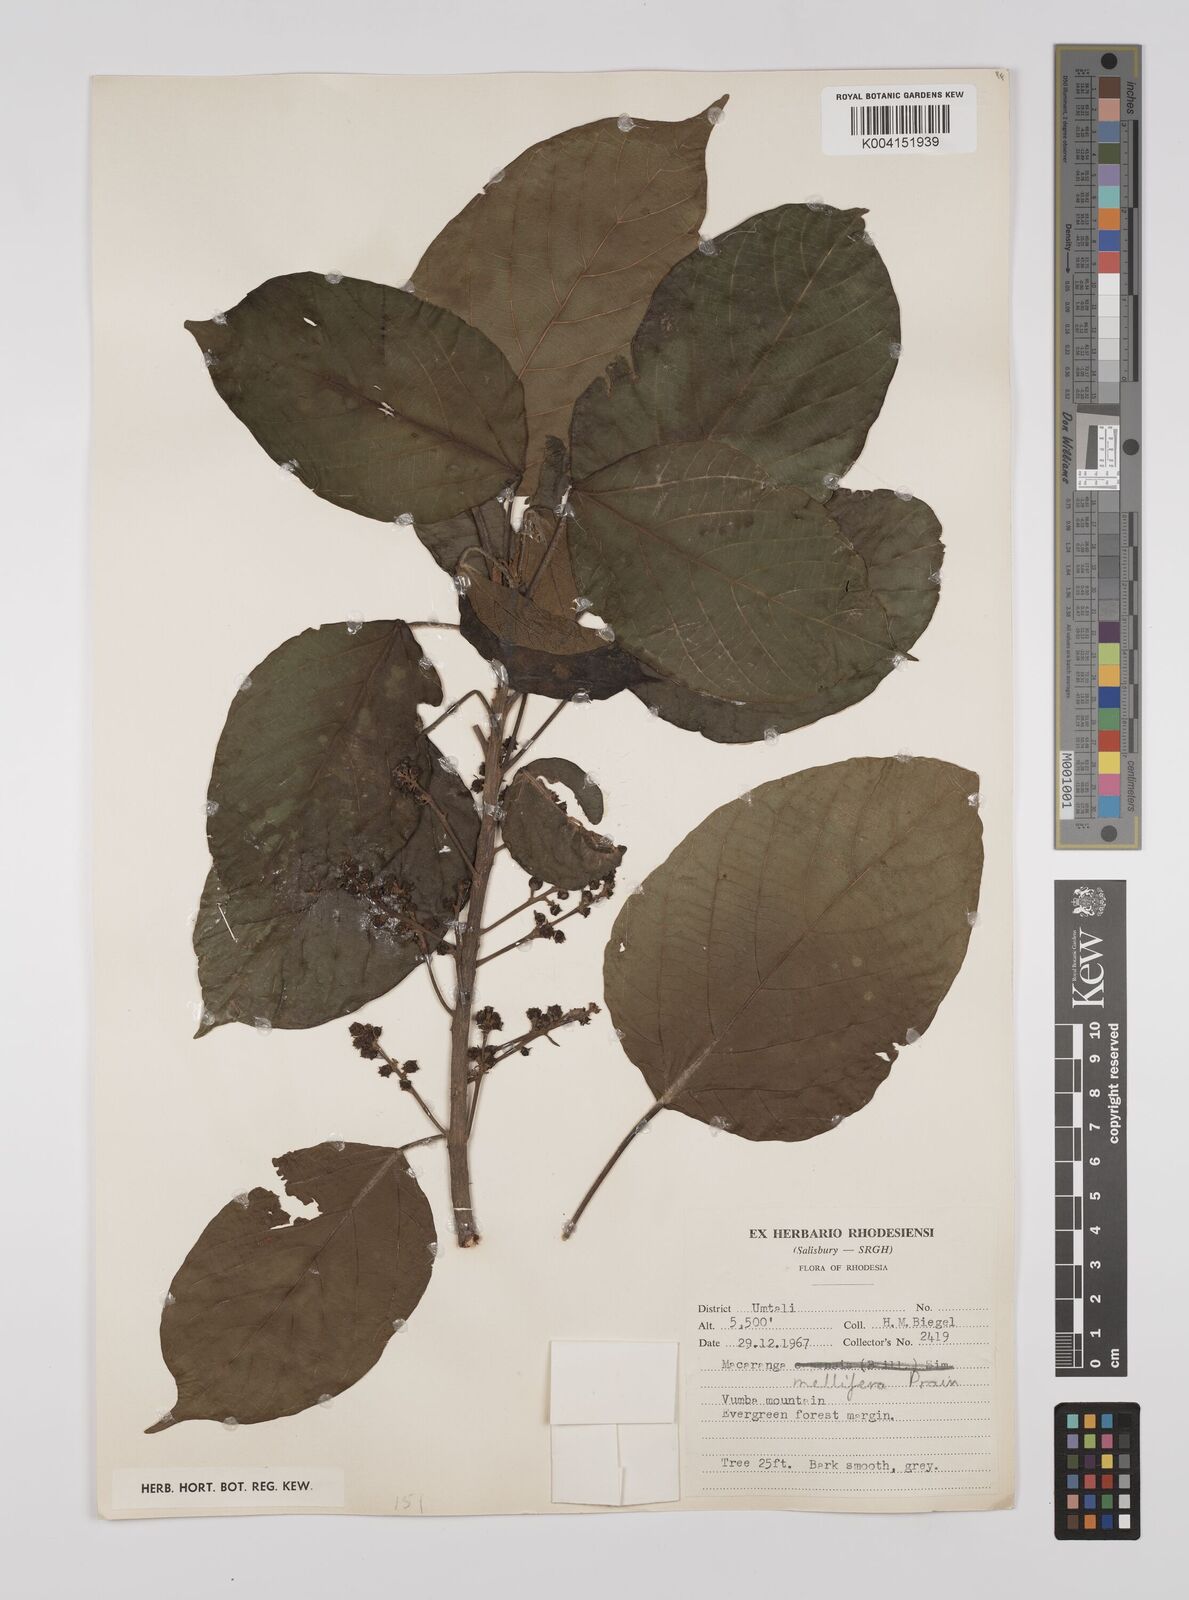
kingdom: Plantae
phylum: Tracheophyta
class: Magnoliopsida
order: Malpighiales
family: Euphorbiaceae
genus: Macaranga
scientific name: Macaranga mellifera
